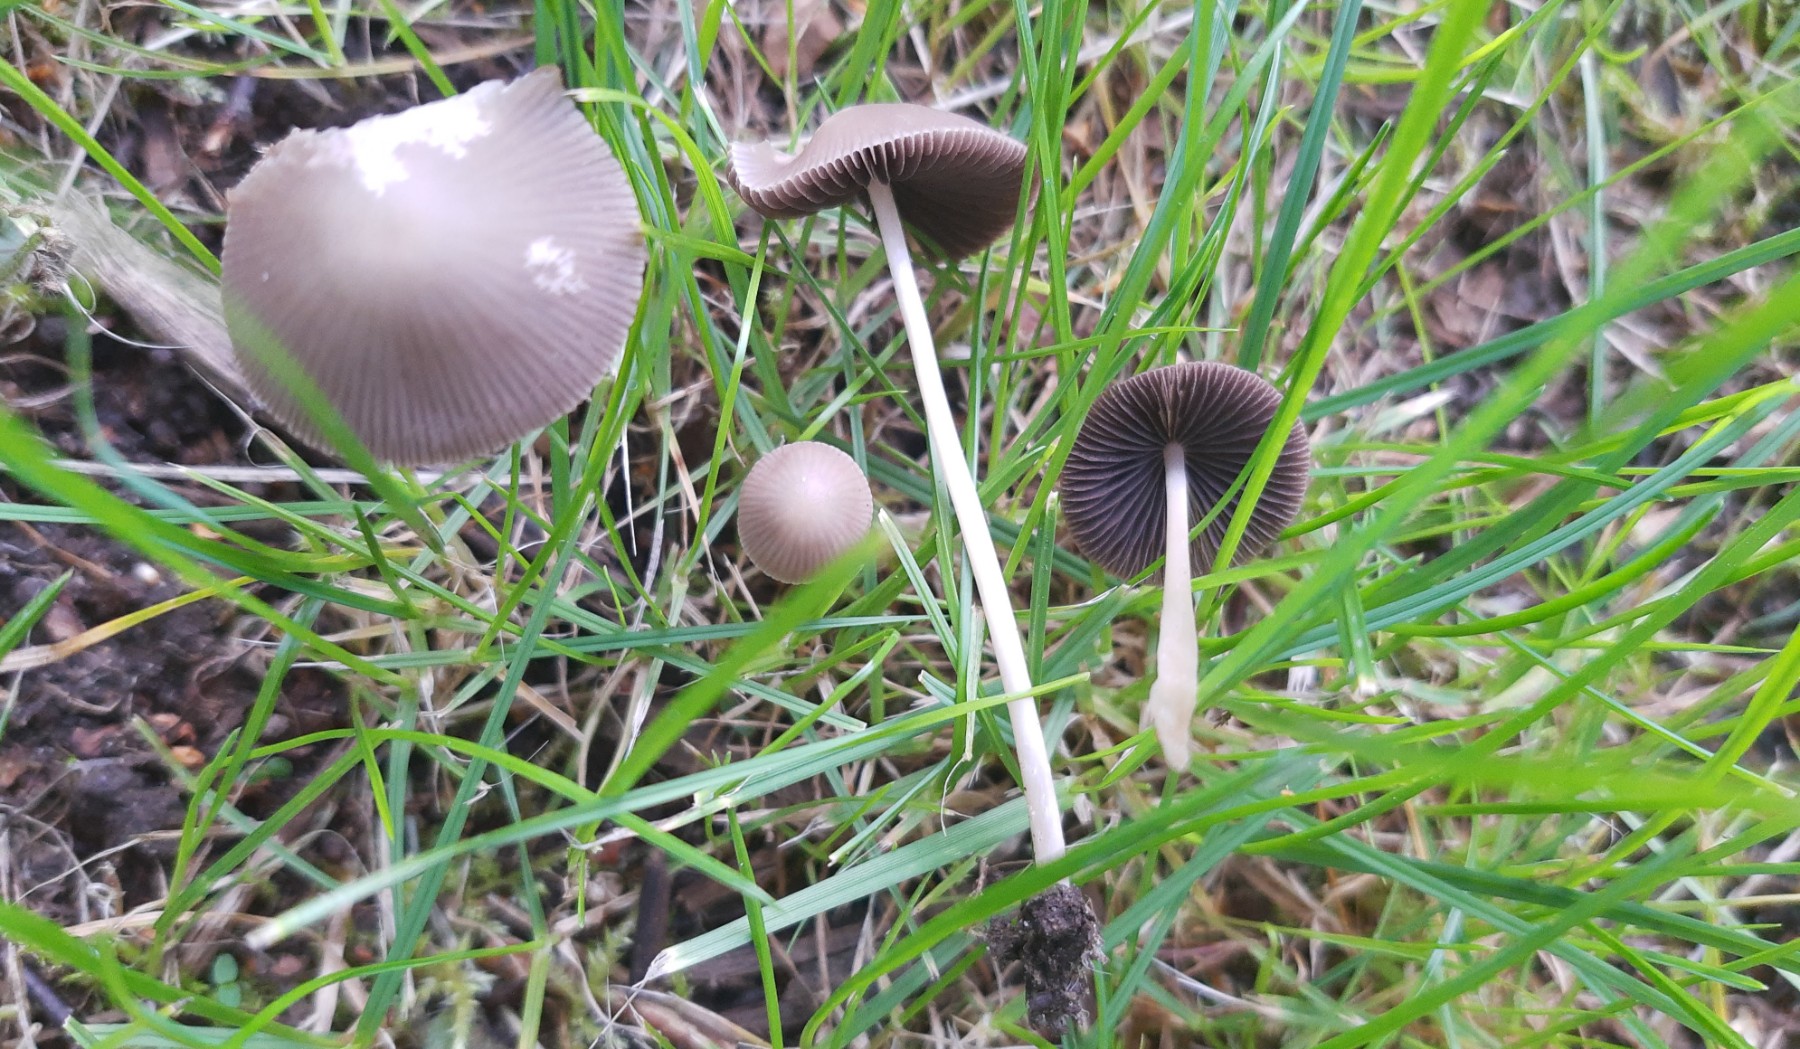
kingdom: Fungi
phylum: Basidiomycota
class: Agaricomycetes
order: Agaricales
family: Psathyrellaceae
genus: Psathyrella
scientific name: Psathyrella pseudogracilis
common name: slank mørkhat
